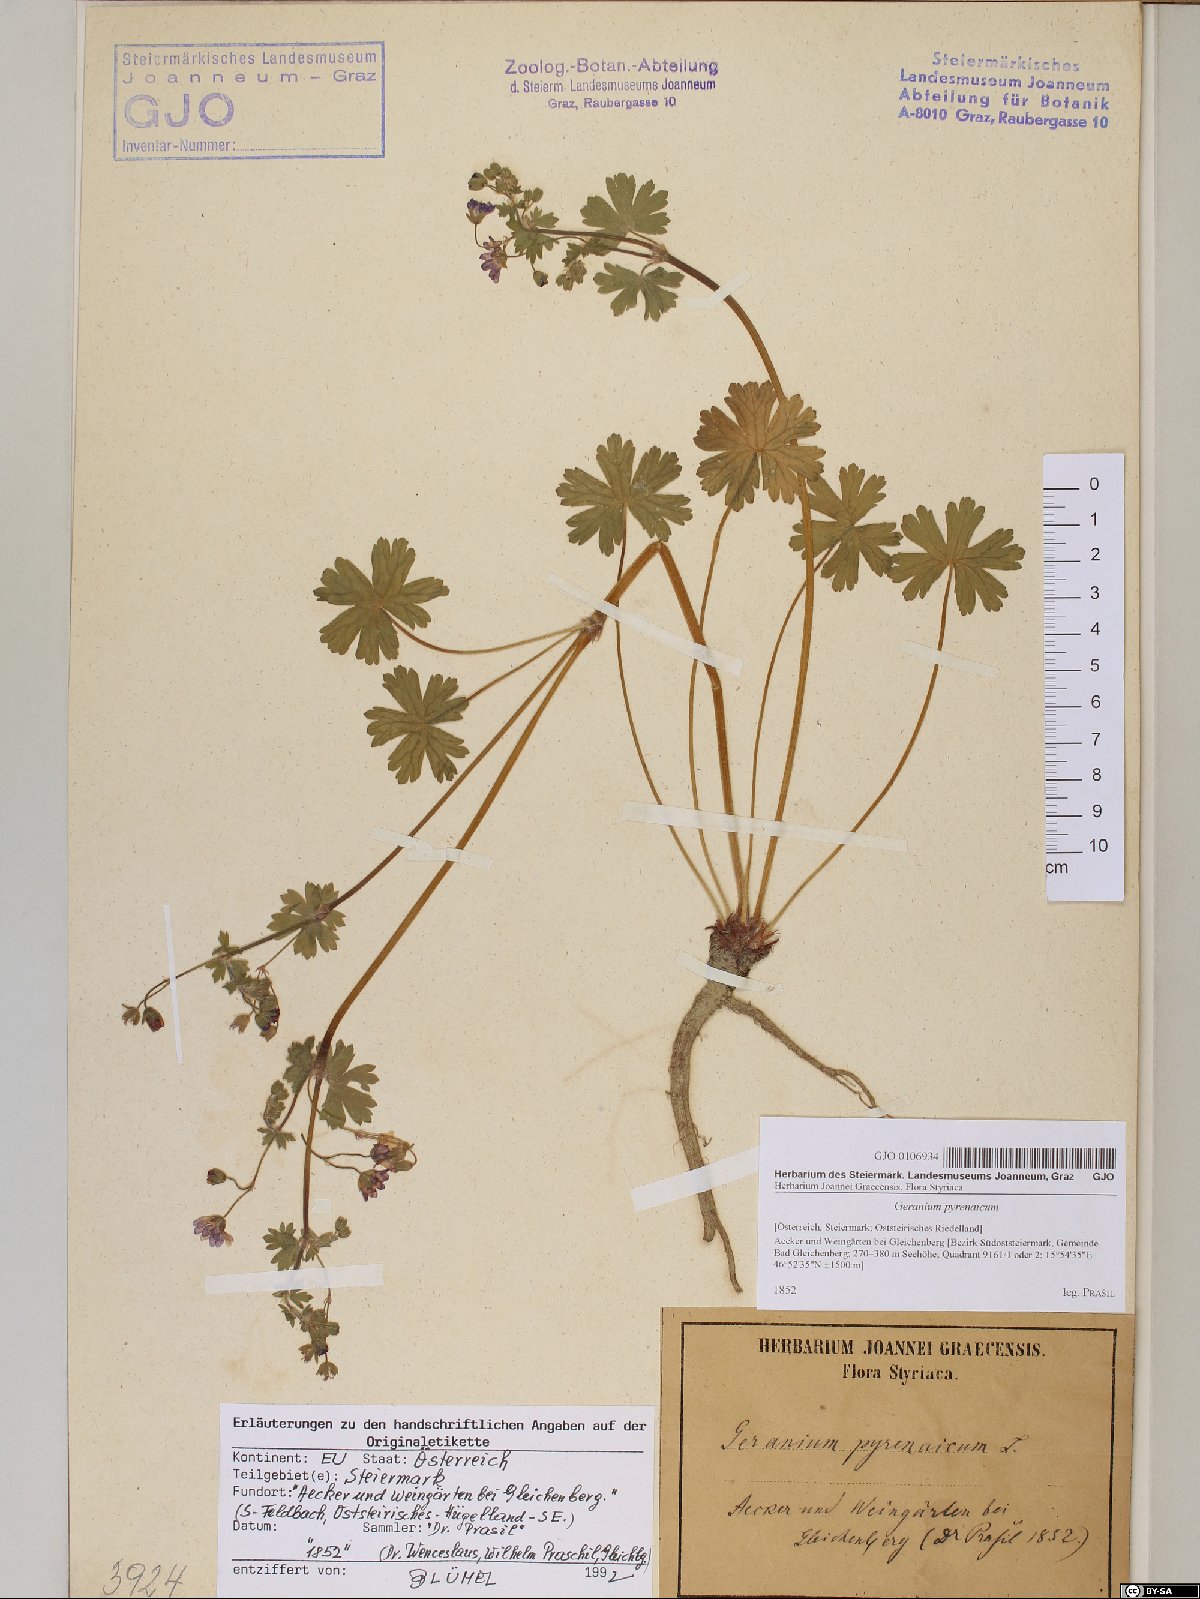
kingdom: Plantae
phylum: Tracheophyta
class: Magnoliopsida
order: Geraniales
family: Geraniaceae
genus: Geranium
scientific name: Geranium pyrenaicum
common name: Hedgerow crane's-bill
